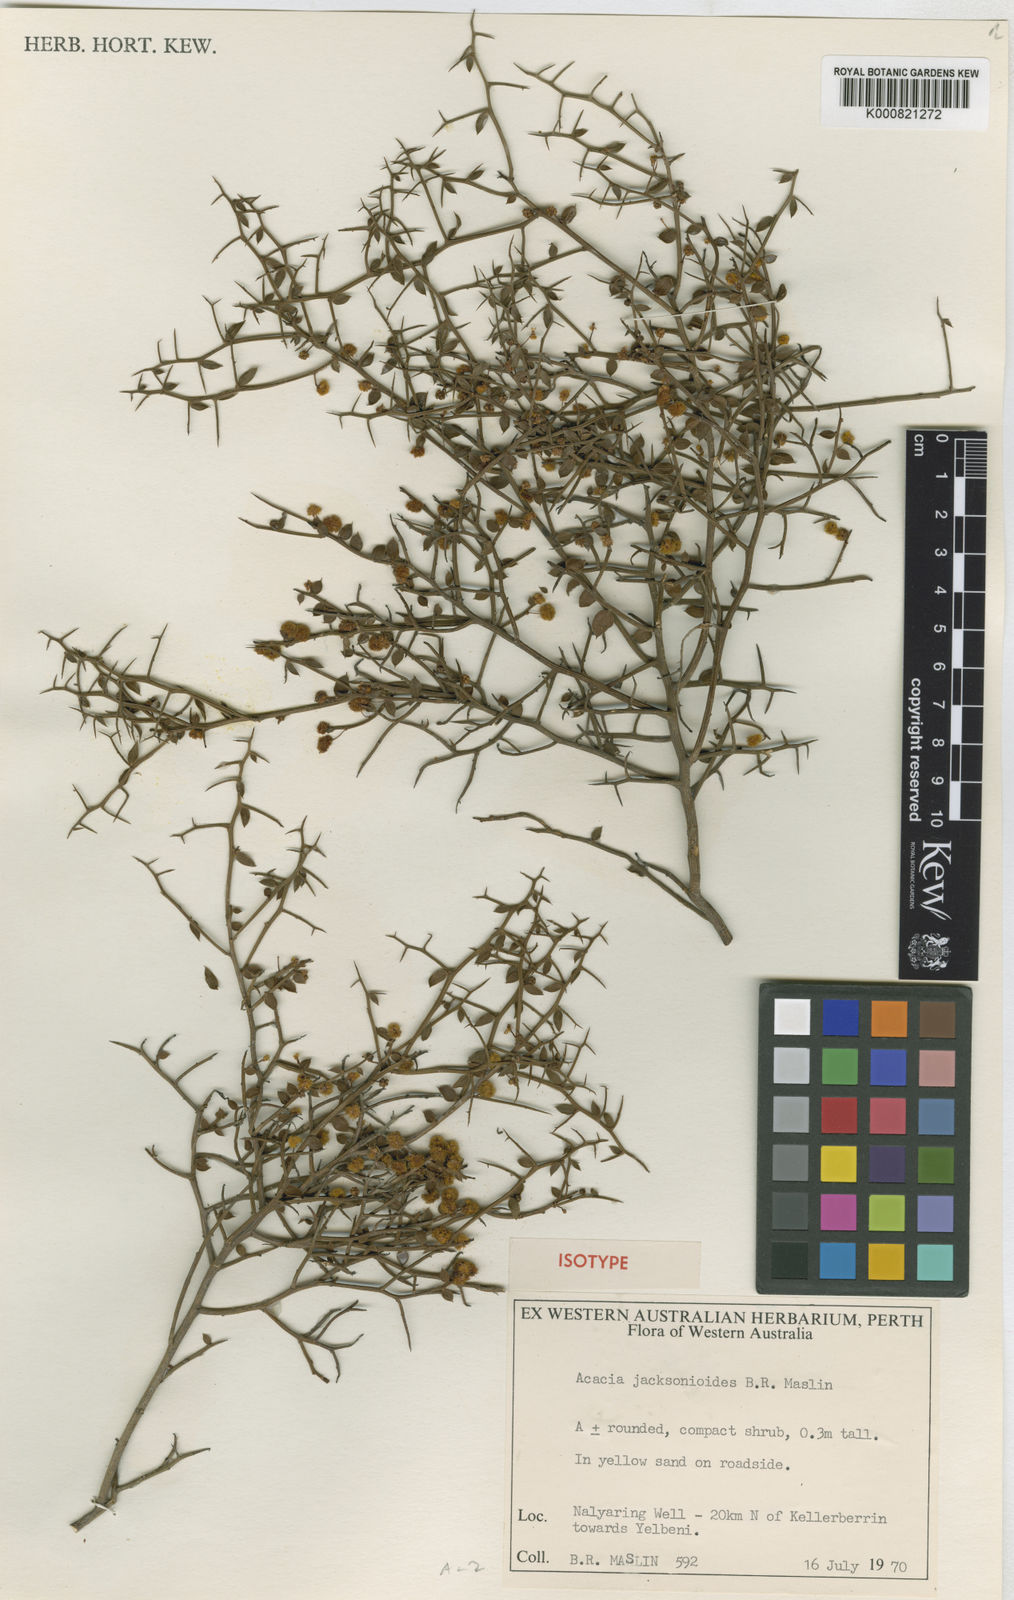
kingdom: Plantae
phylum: Tracheophyta
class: Magnoliopsida
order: Fabales
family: Fabaceae
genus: Acacia
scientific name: Acacia jacksonioides
